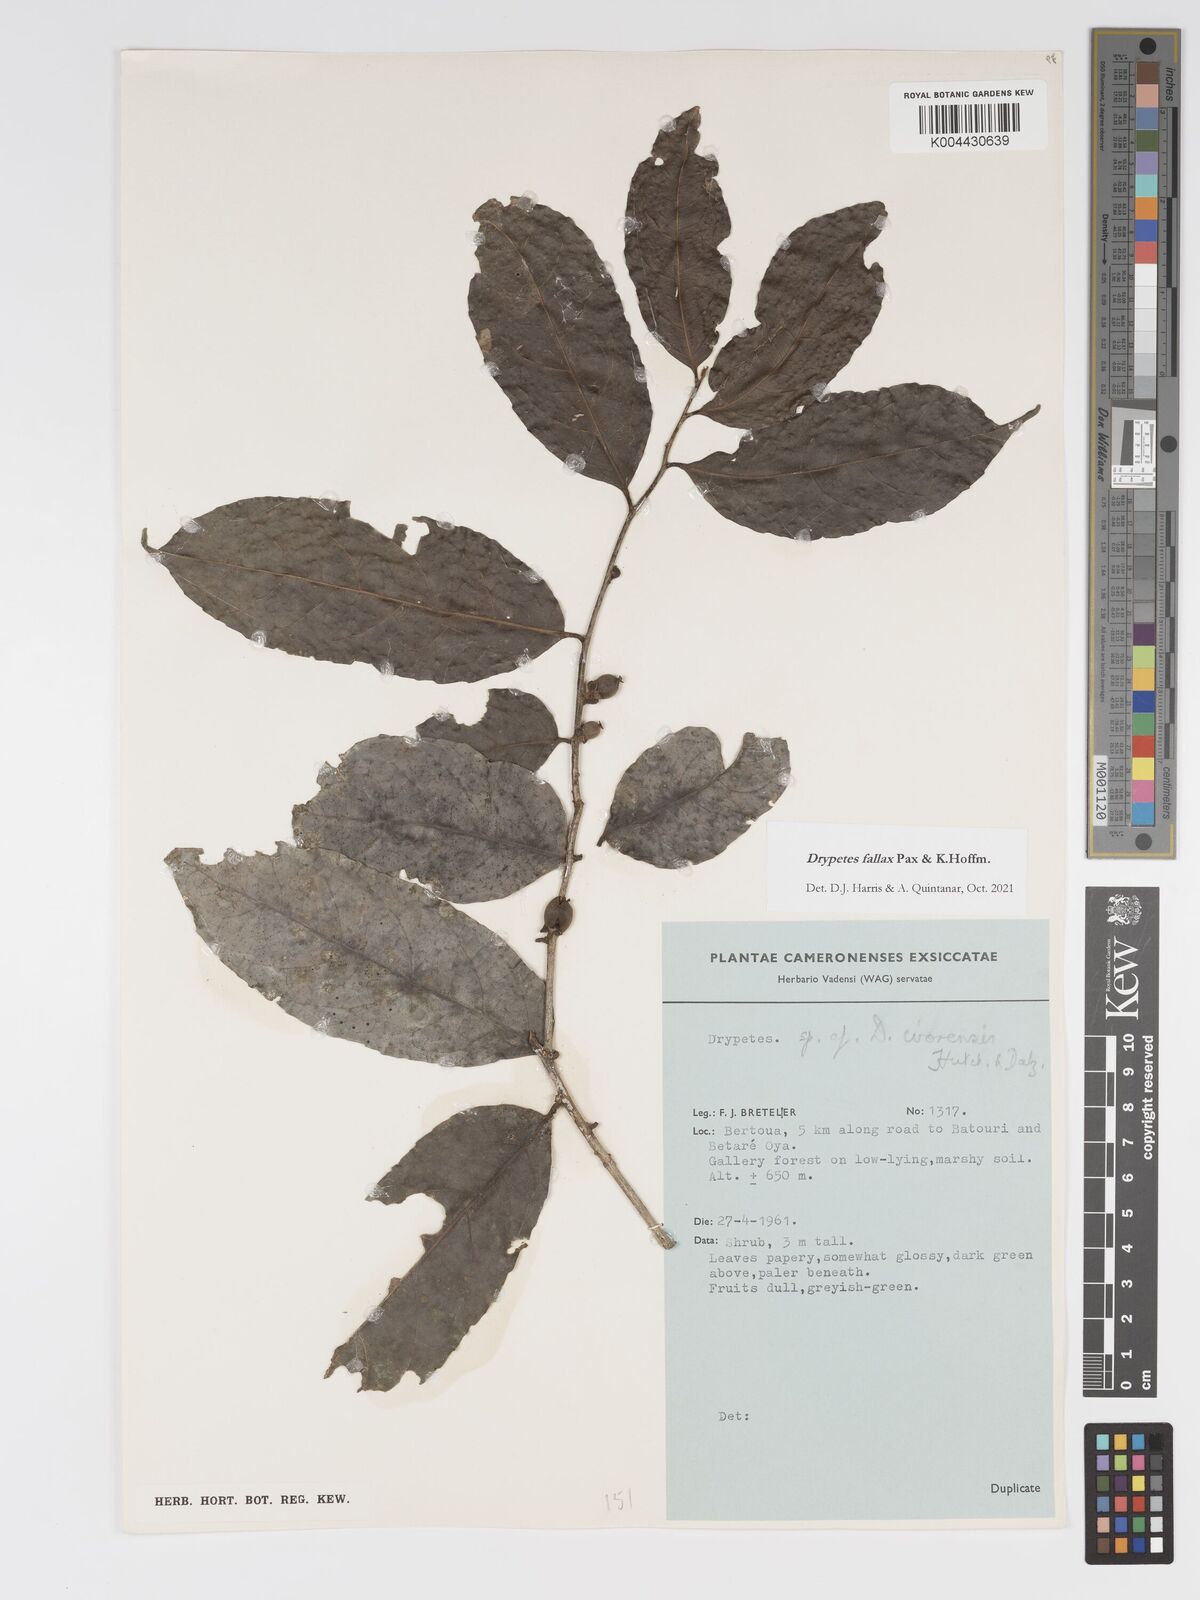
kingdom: Plantae
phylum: Tracheophyta
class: Magnoliopsida
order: Malpighiales
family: Putranjivaceae
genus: Drypetes
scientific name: Drypetes fallax
